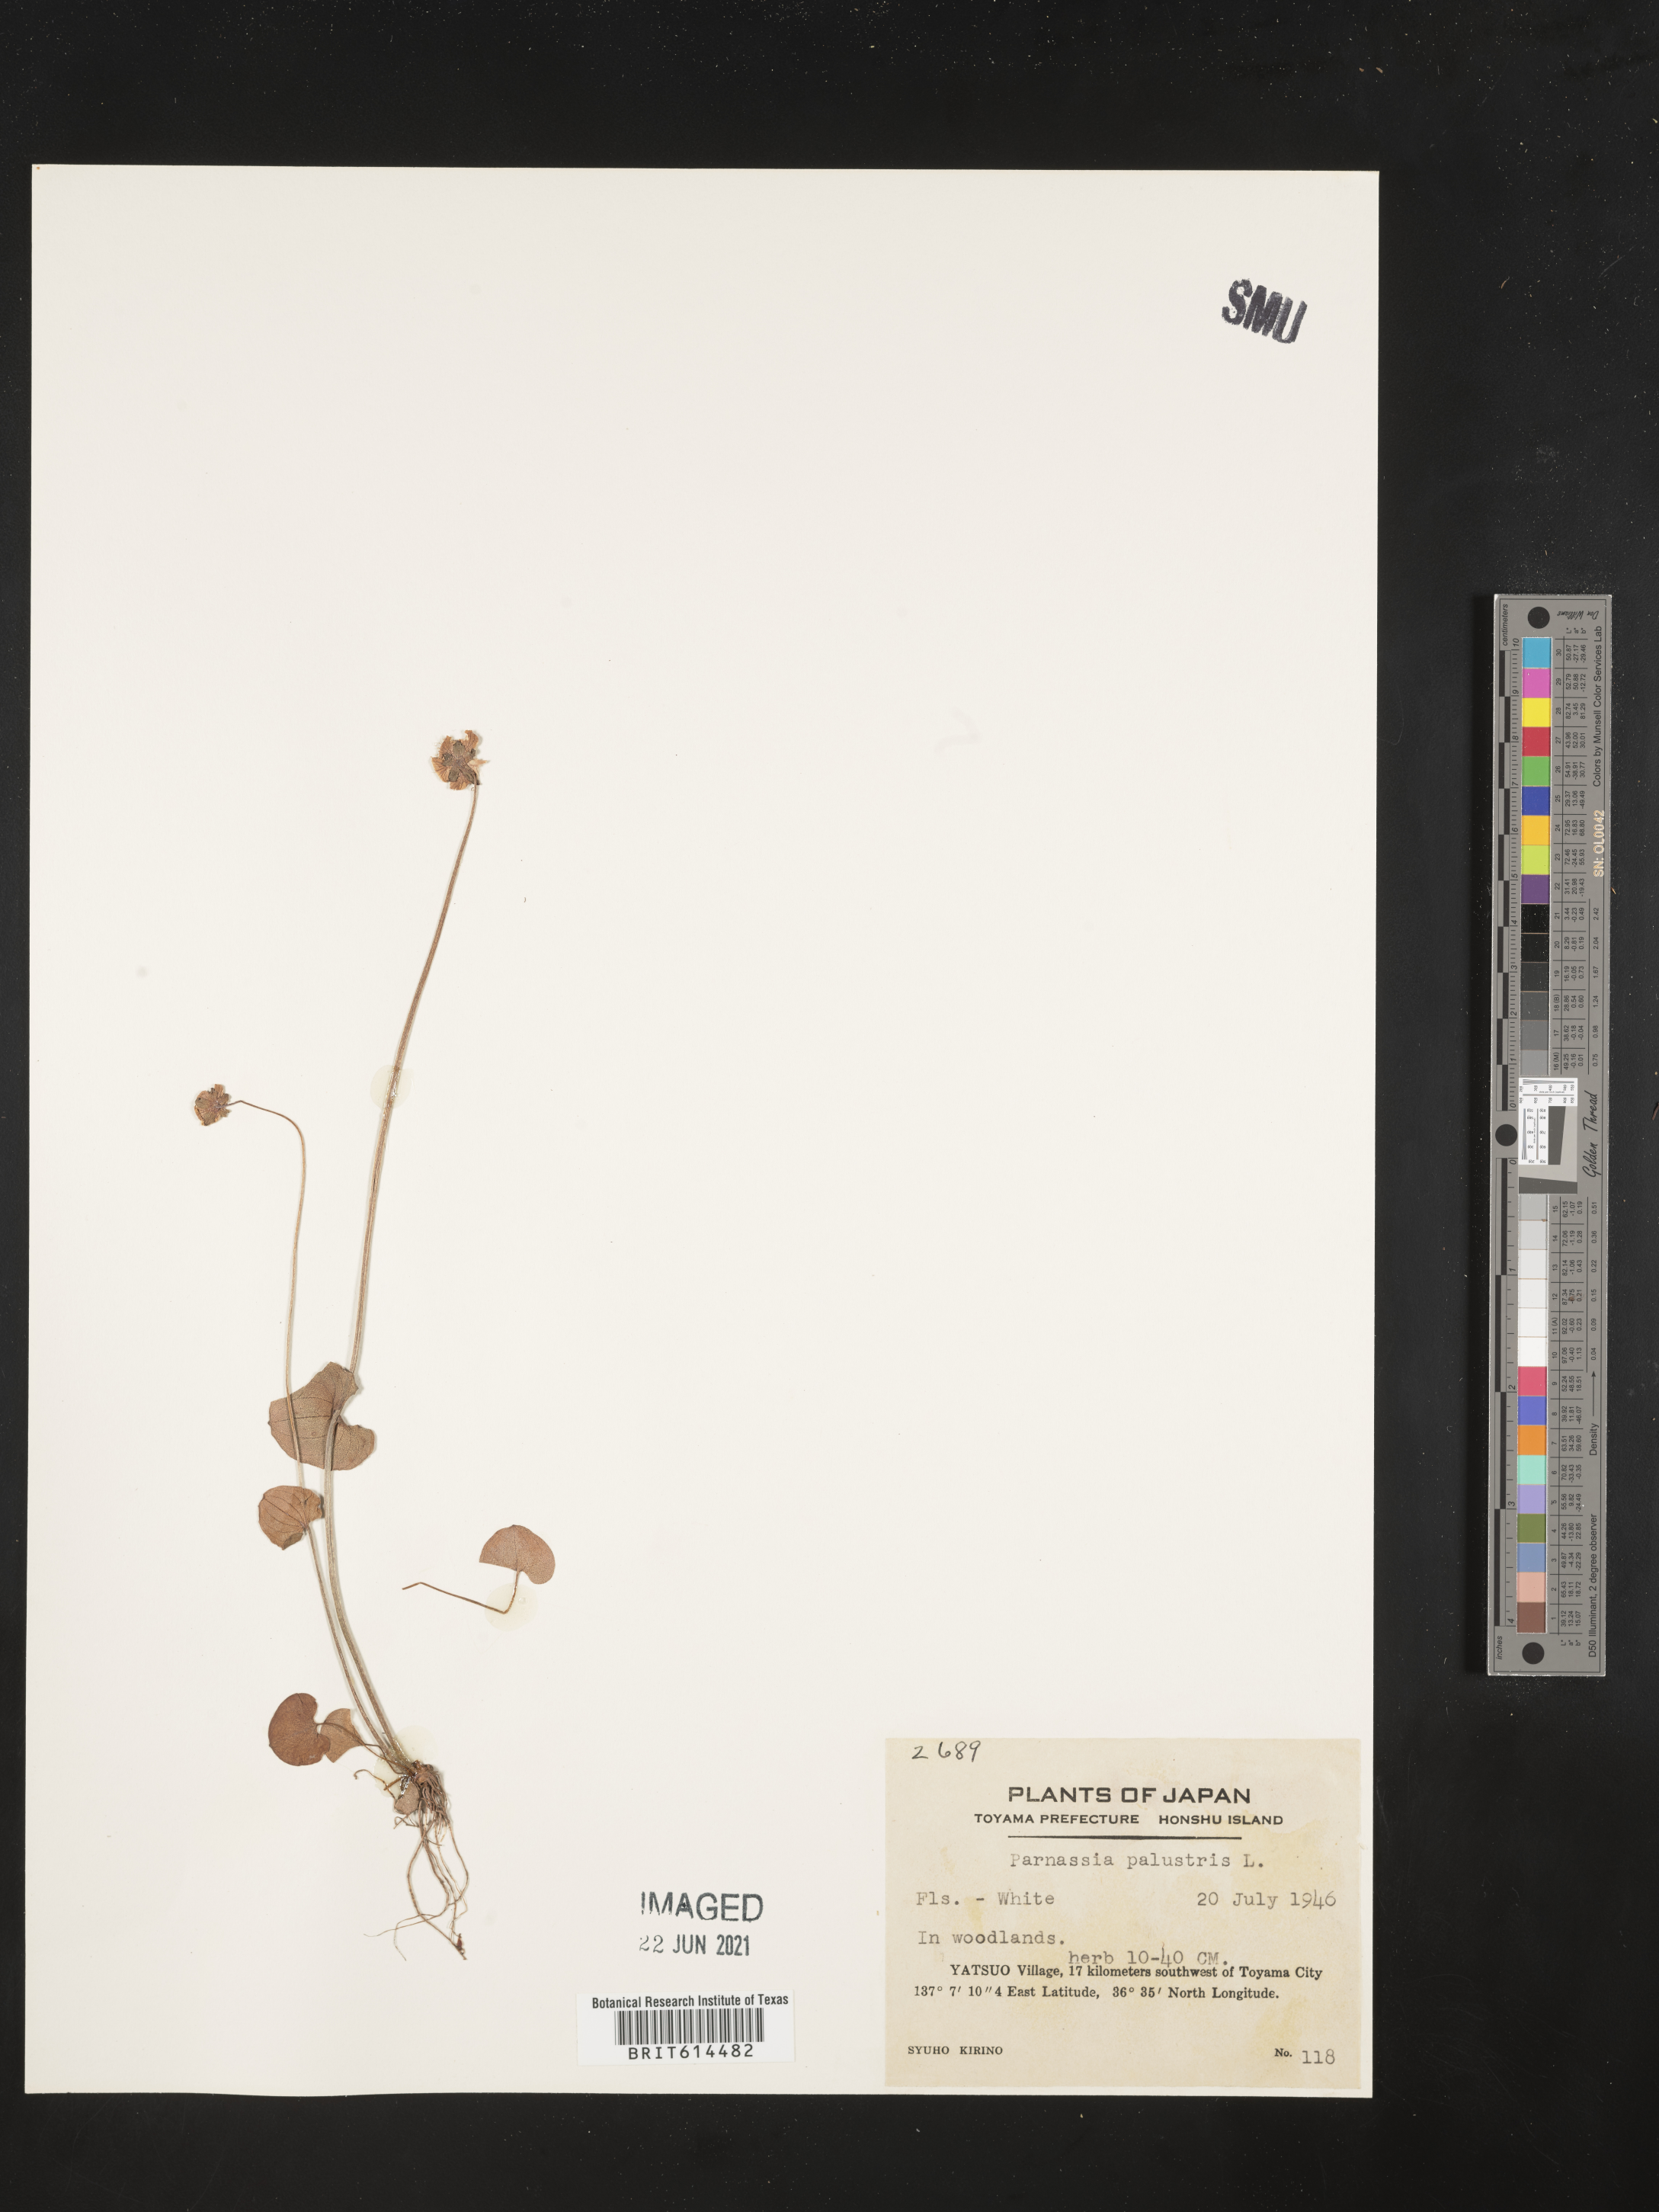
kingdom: Plantae
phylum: Tracheophyta
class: Magnoliopsida
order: Celastrales
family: Parnassiaceae
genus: Parnassia
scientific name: Parnassia palustris
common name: Grass-of-parnassus
